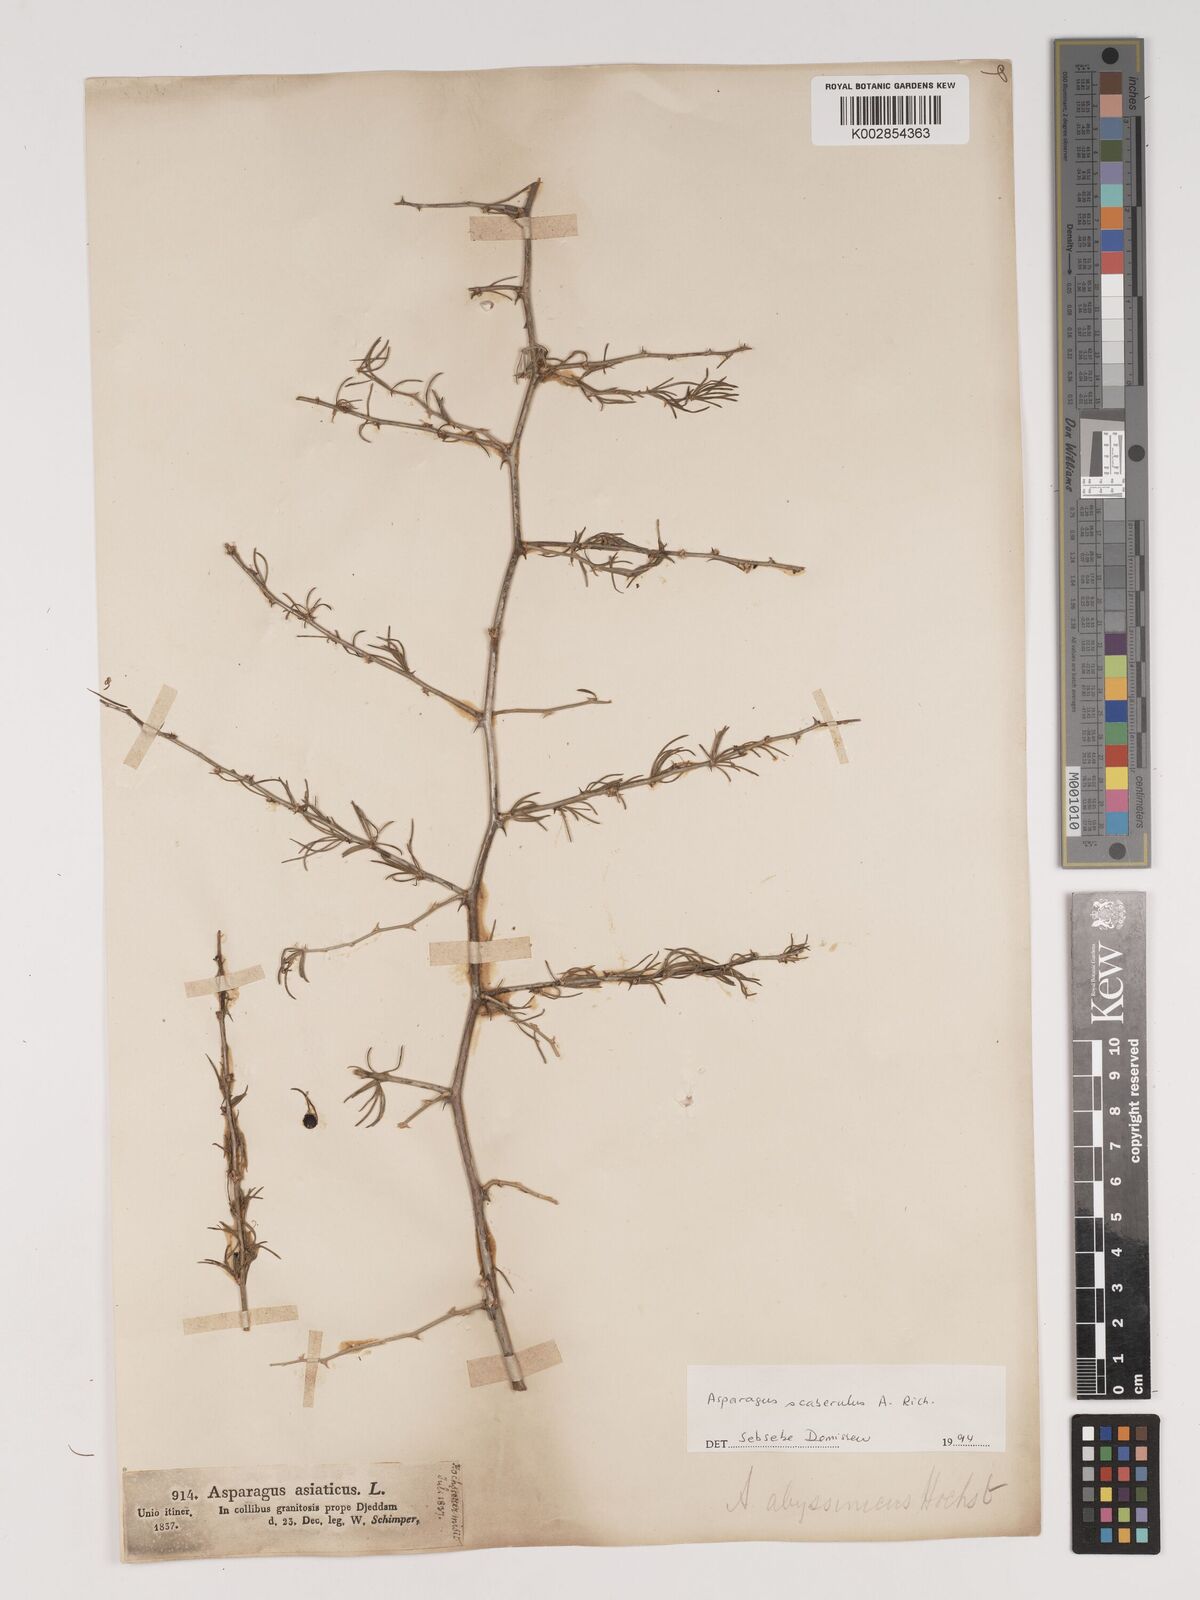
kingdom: Plantae
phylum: Tracheophyta
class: Liliopsida
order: Asparagales
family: Asparagaceae
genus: Asparagus
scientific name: Asparagus africanus
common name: Asparagus-fern
